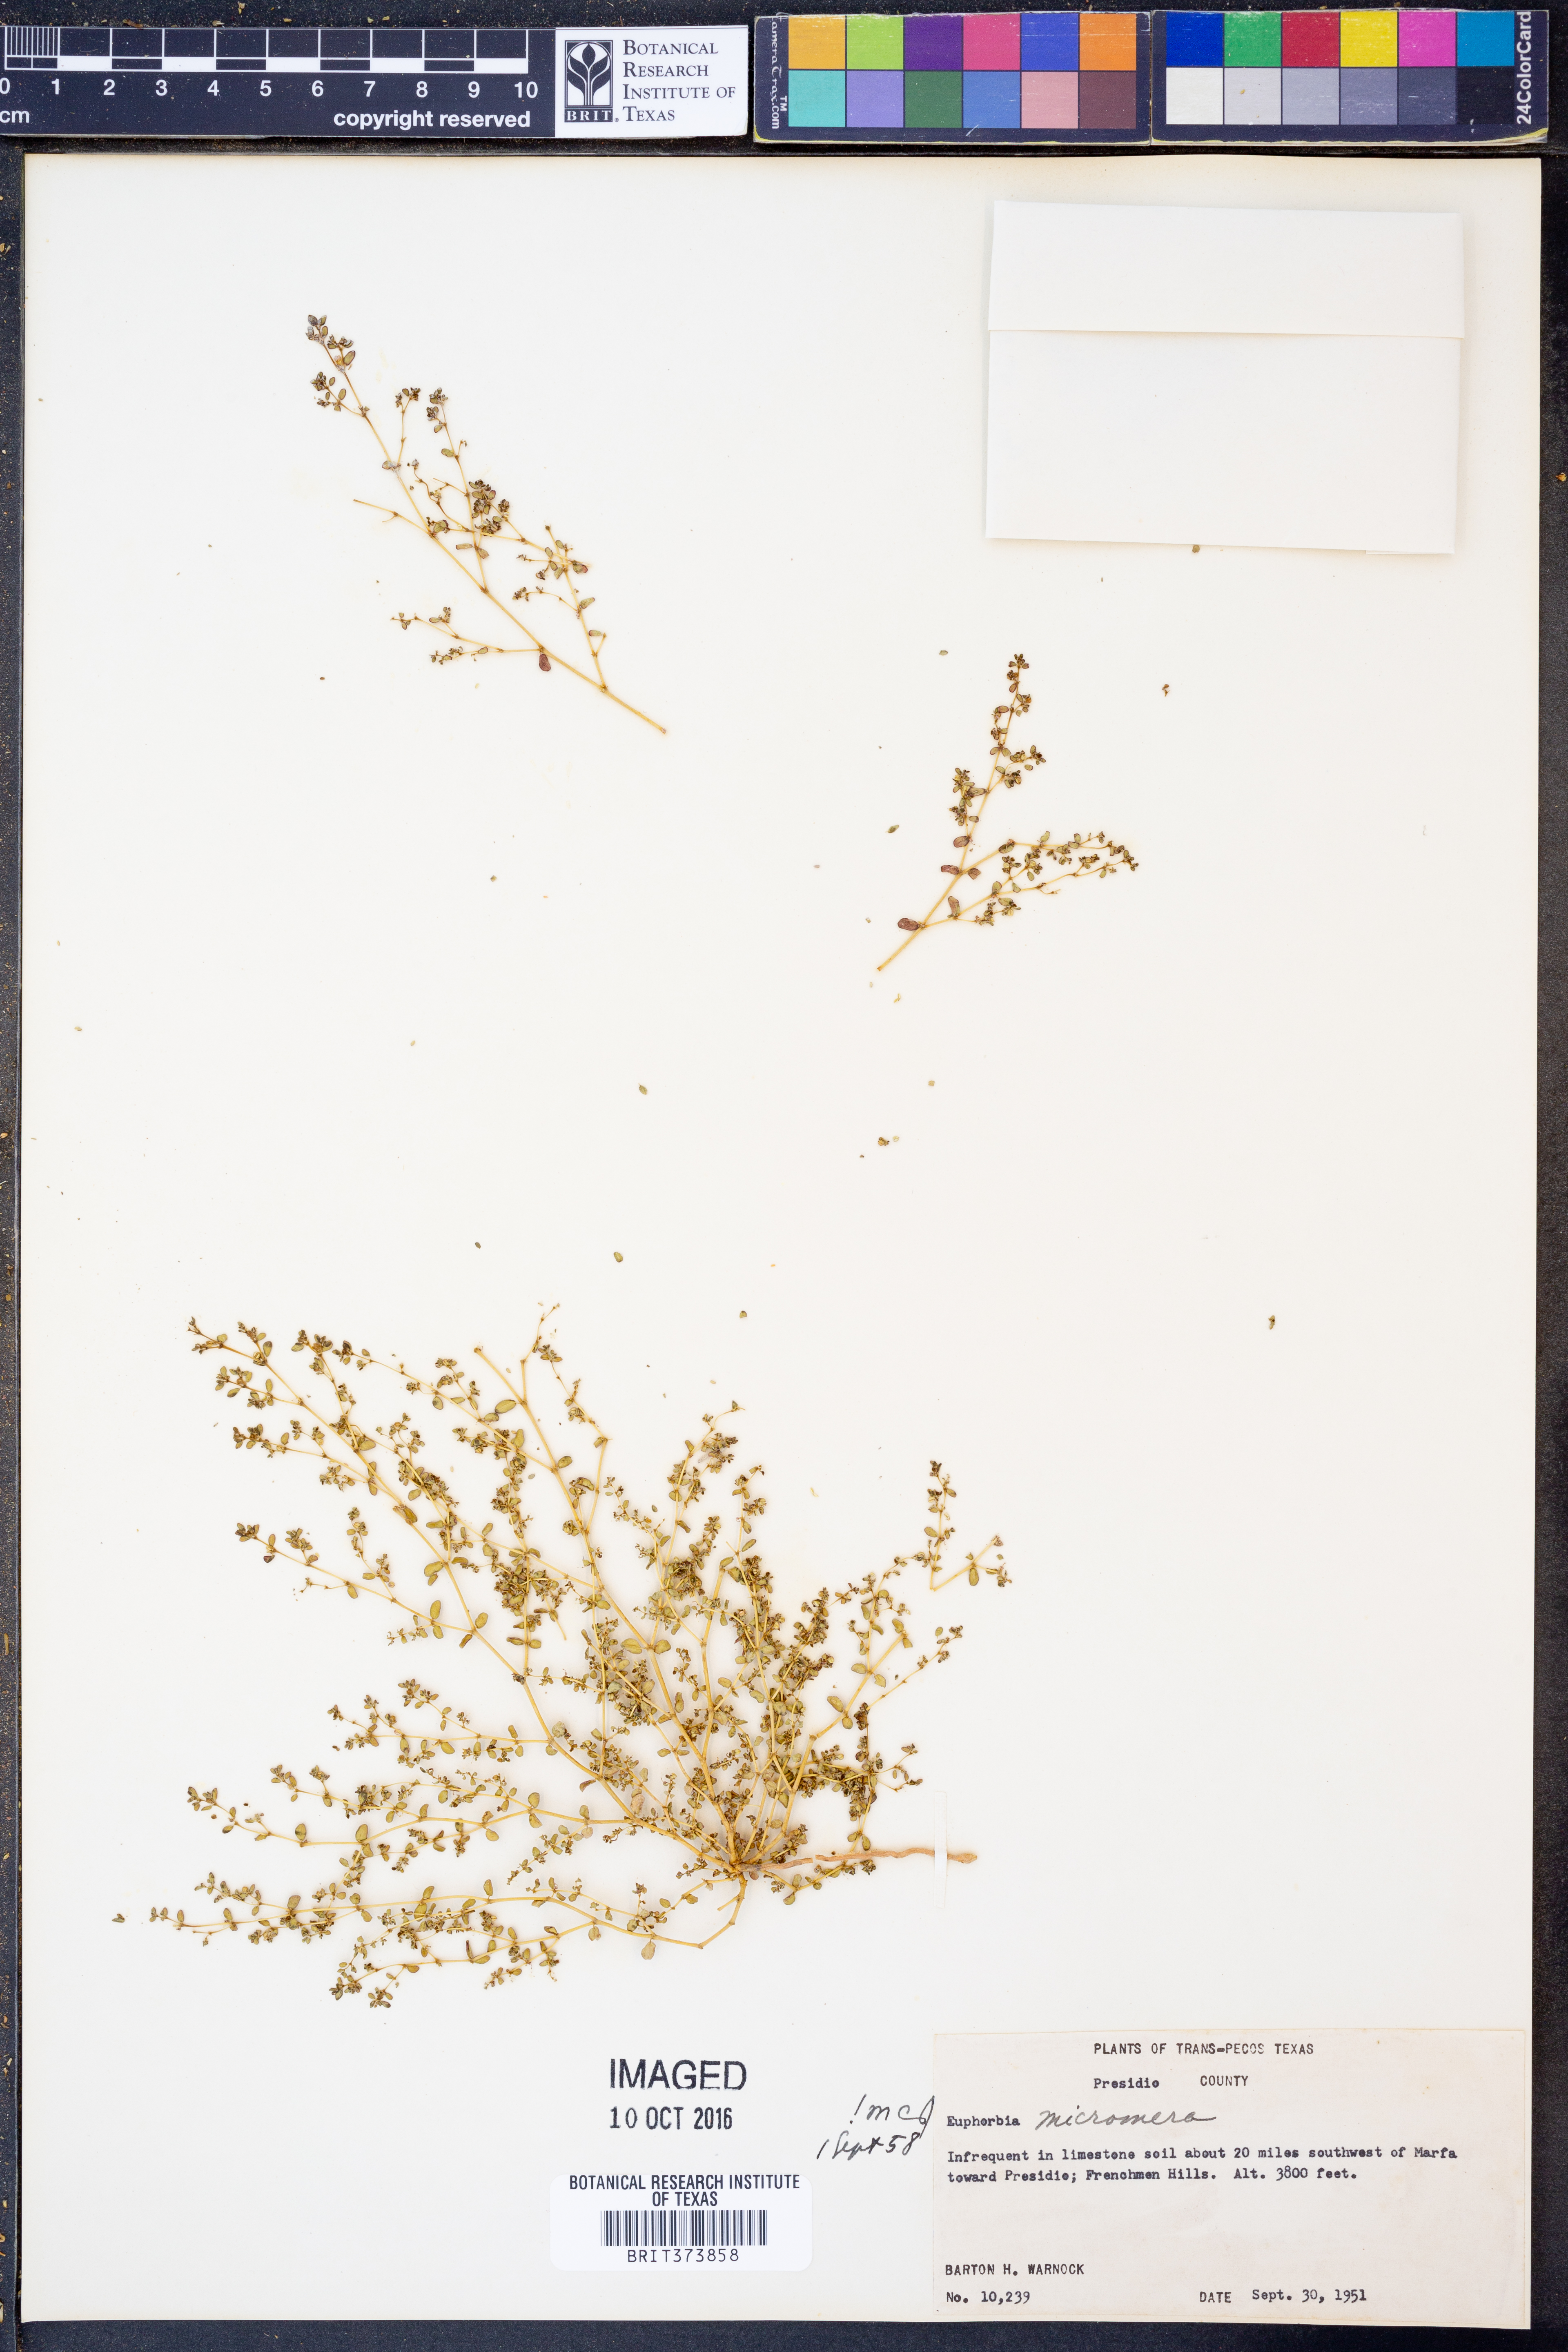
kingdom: Plantae
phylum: Tracheophyta
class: Magnoliopsida
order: Malpighiales
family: Euphorbiaceae
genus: Euphorbia
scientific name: Euphorbia micromera
